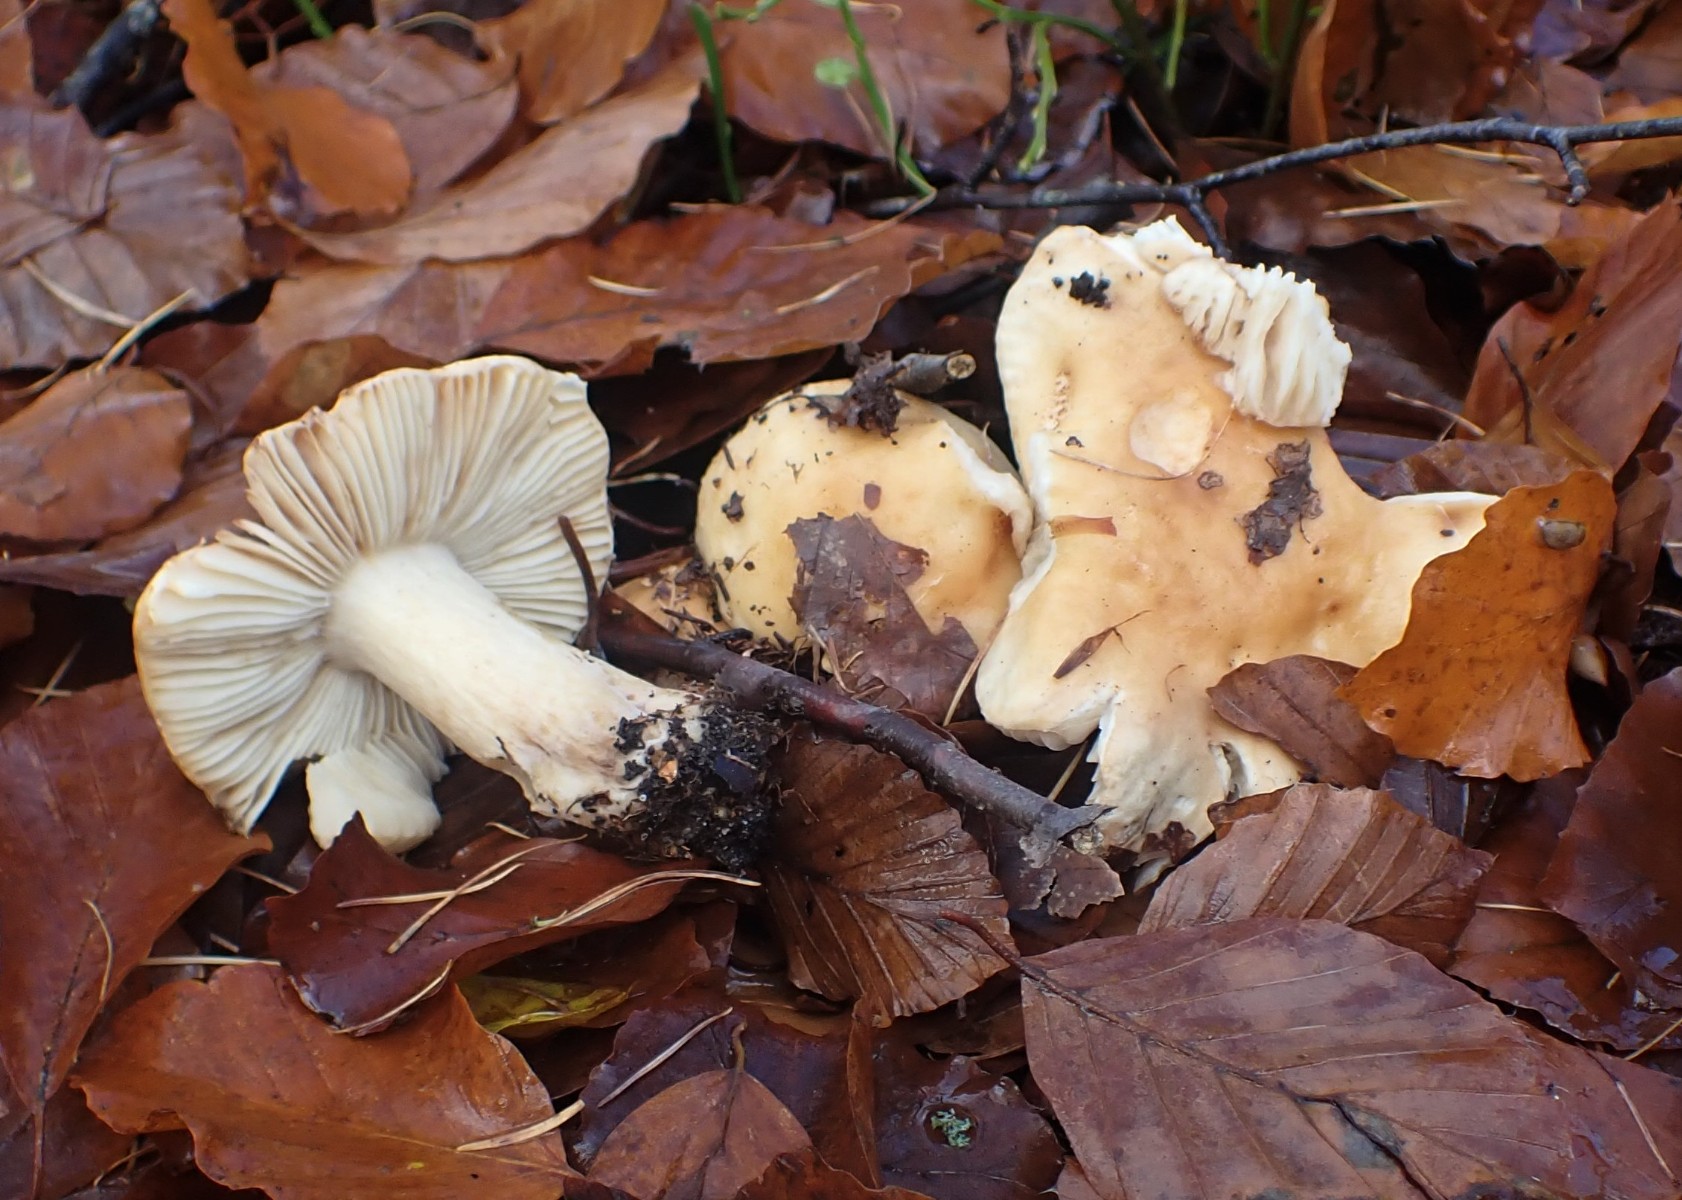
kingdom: Fungi
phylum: Basidiomycota
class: Agaricomycetes
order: Russulales
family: Russulaceae
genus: Russula
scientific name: Russula fellea
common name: galde-skørhat
